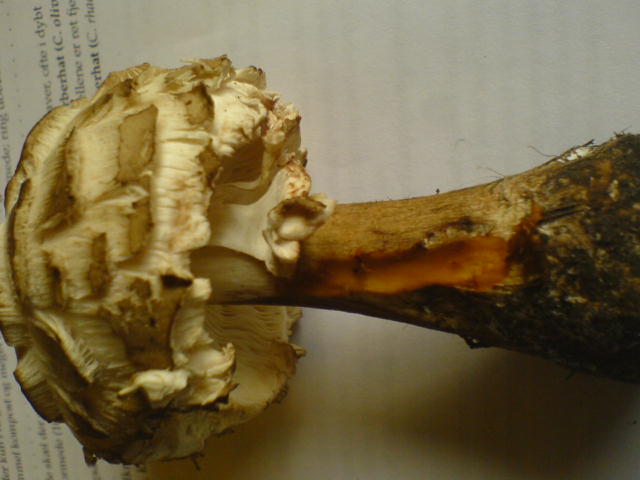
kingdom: Fungi
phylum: Basidiomycota
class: Agaricomycetes
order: Agaricales
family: Agaricaceae
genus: Chlorophyllum
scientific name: Chlorophyllum rhacodes
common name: ægte rabarberhat
